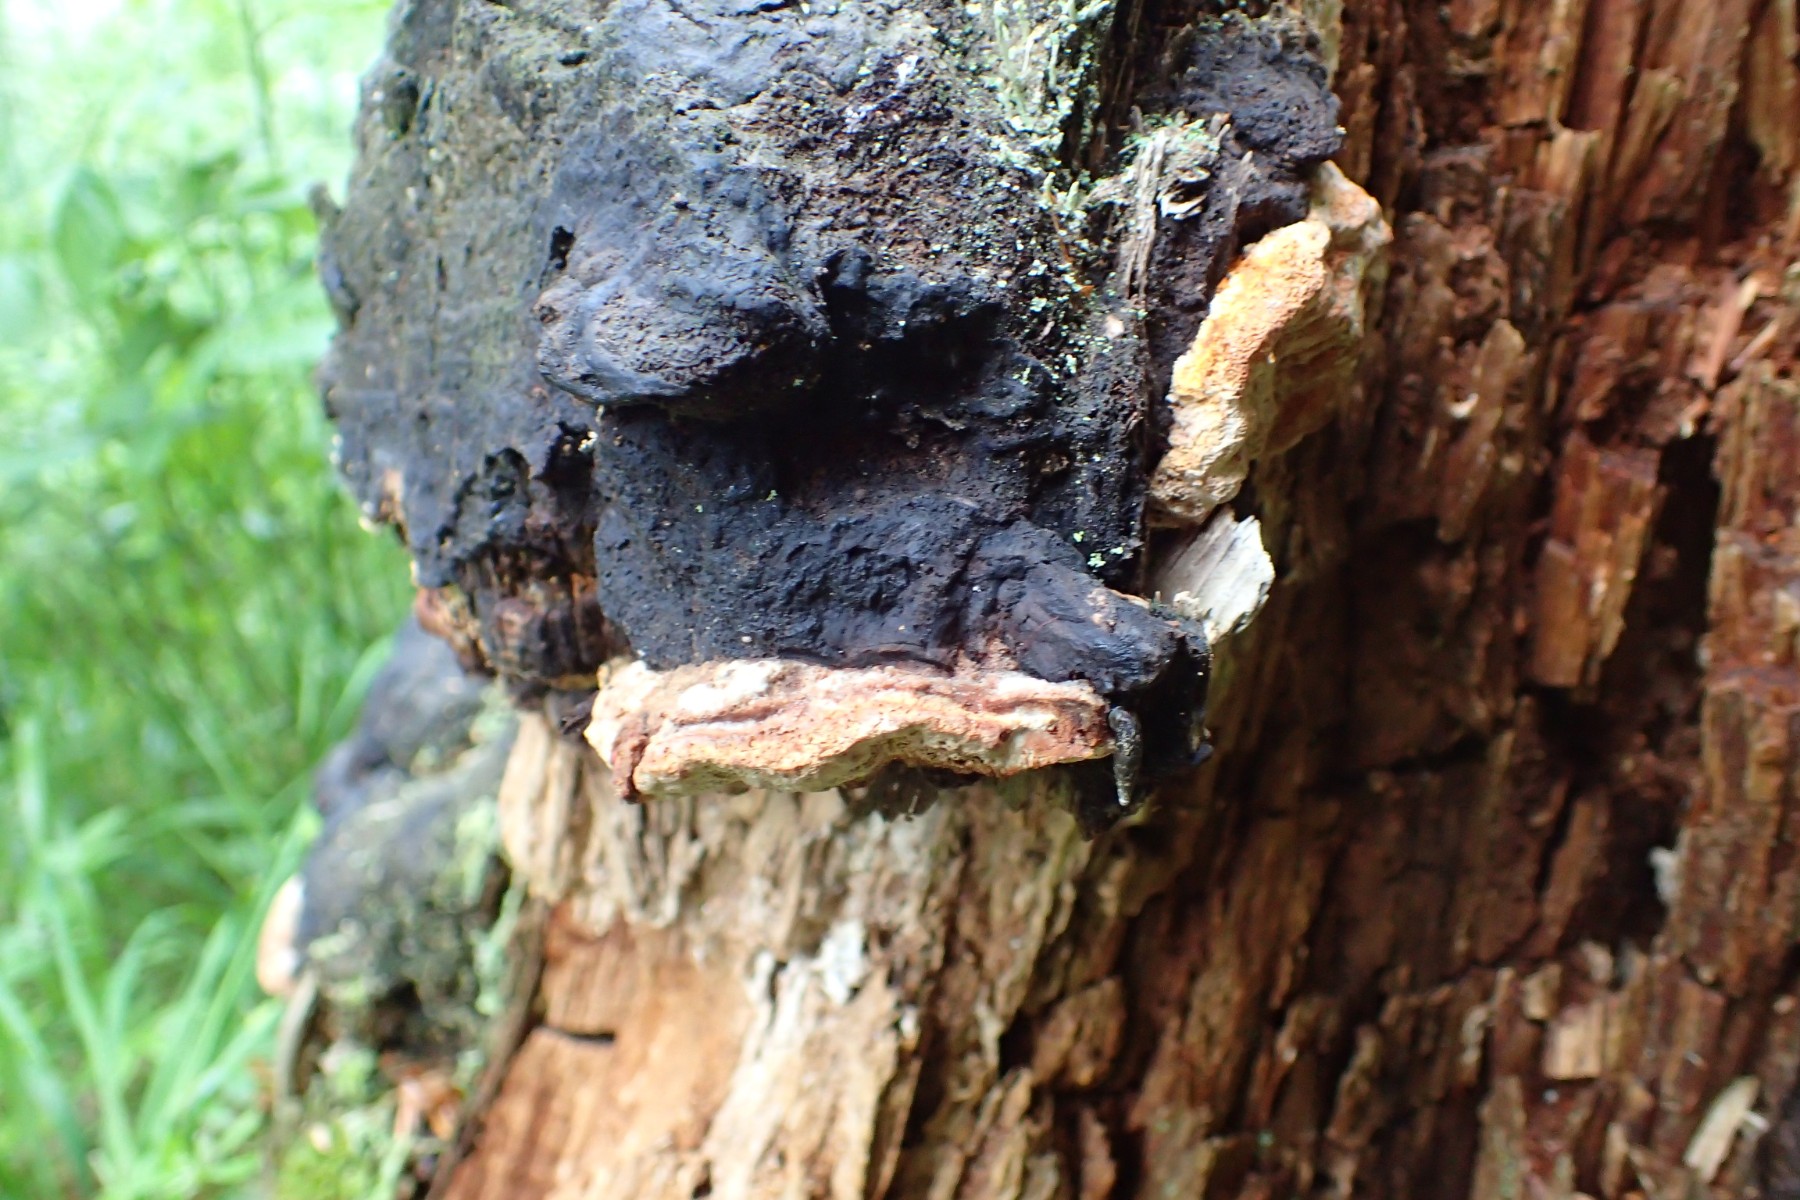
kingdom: Fungi
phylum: Basidiomycota
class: Agaricomycetes
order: Gloeophyllales
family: Gloeophyllaceae
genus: Gloeophyllum
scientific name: Gloeophyllum odoratum
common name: duftende korkhat
